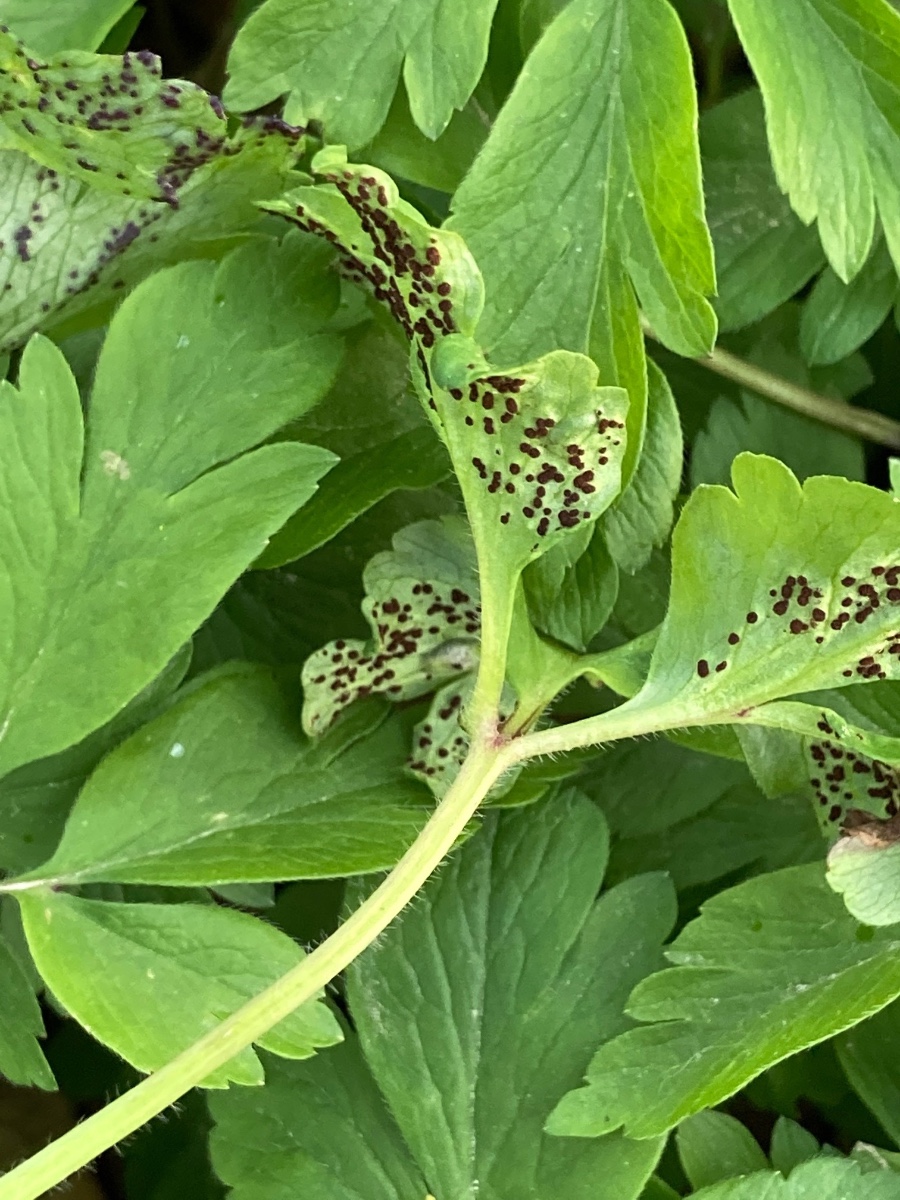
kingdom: Fungi
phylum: Basidiomycota
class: Pucciniomycetes
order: Pucciniales
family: Tranzscheliaceae
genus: Tranzschelia
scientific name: Tranzschelia anemones
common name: anemone-knæksporerust
